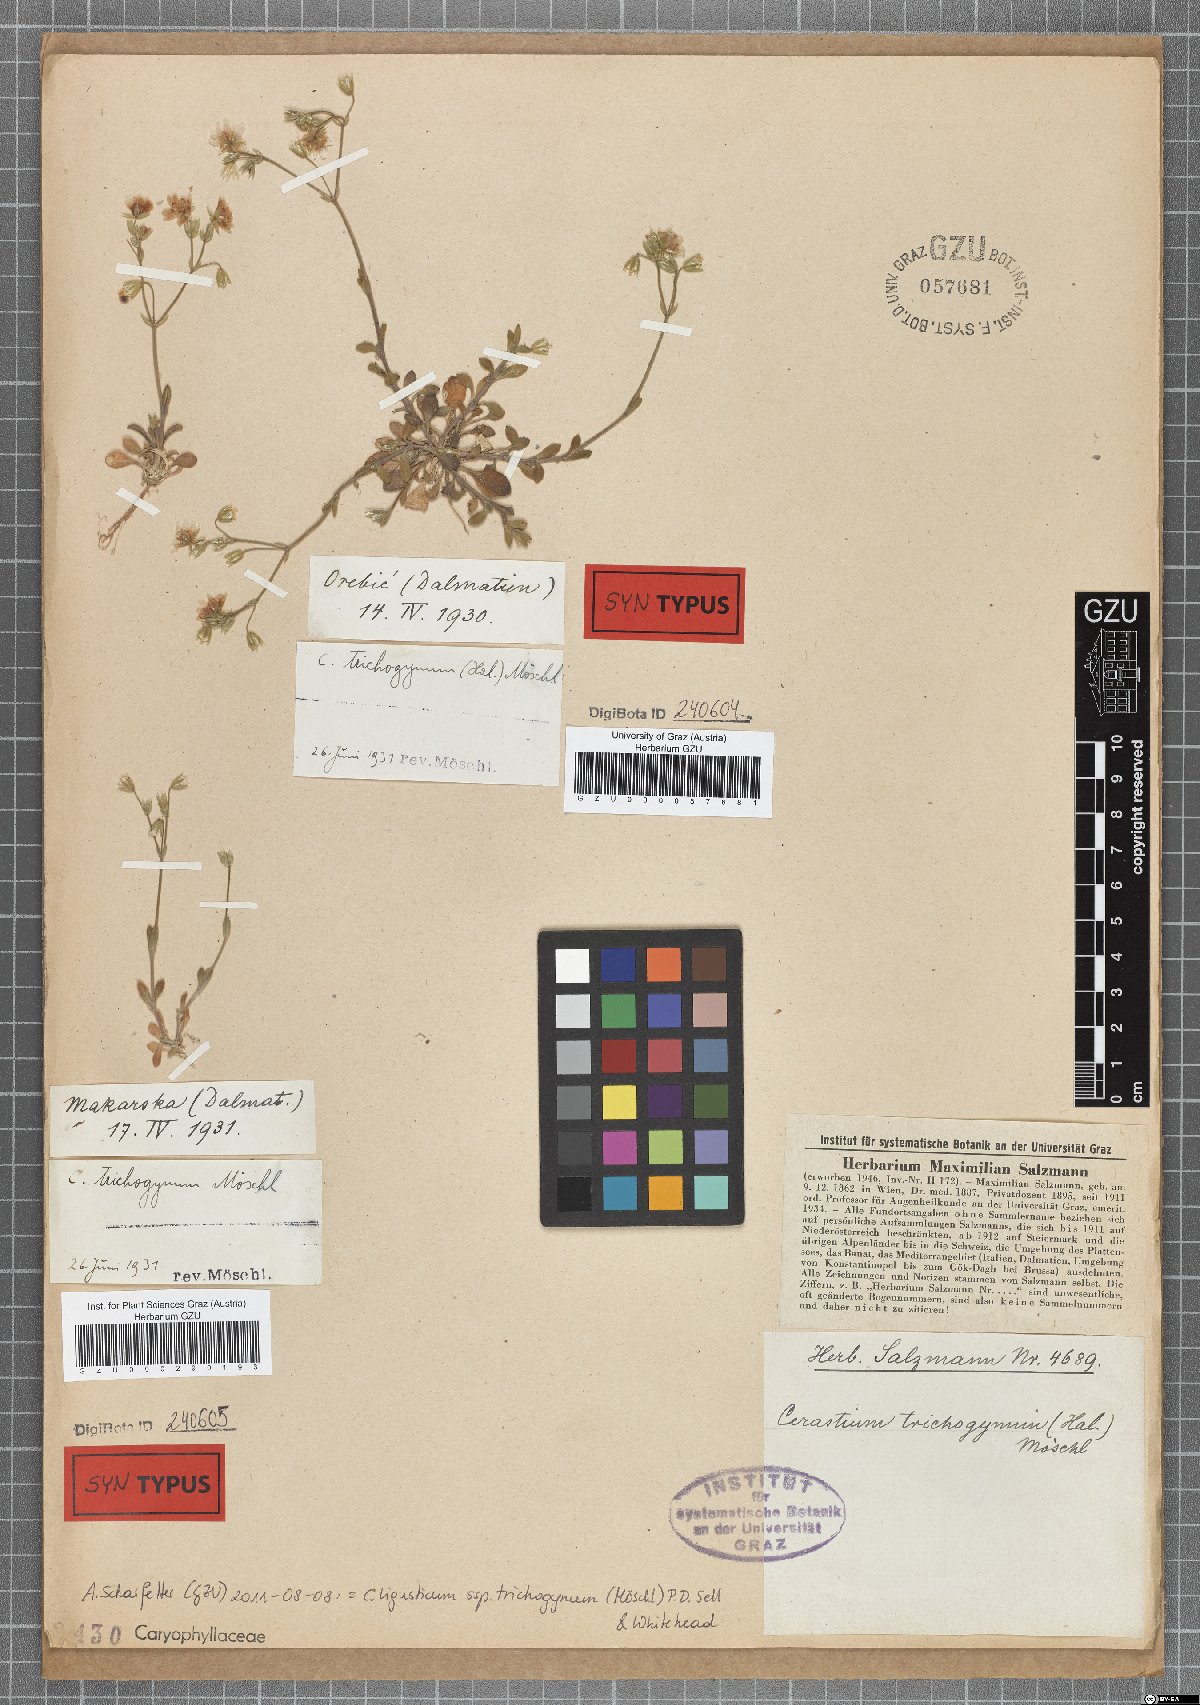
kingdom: Plantae
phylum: Tracheophyta
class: Magnoliopsida
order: Caryophyllales
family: Caryophyllaceae
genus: Cerastium
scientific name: Cerastium ligusticum
